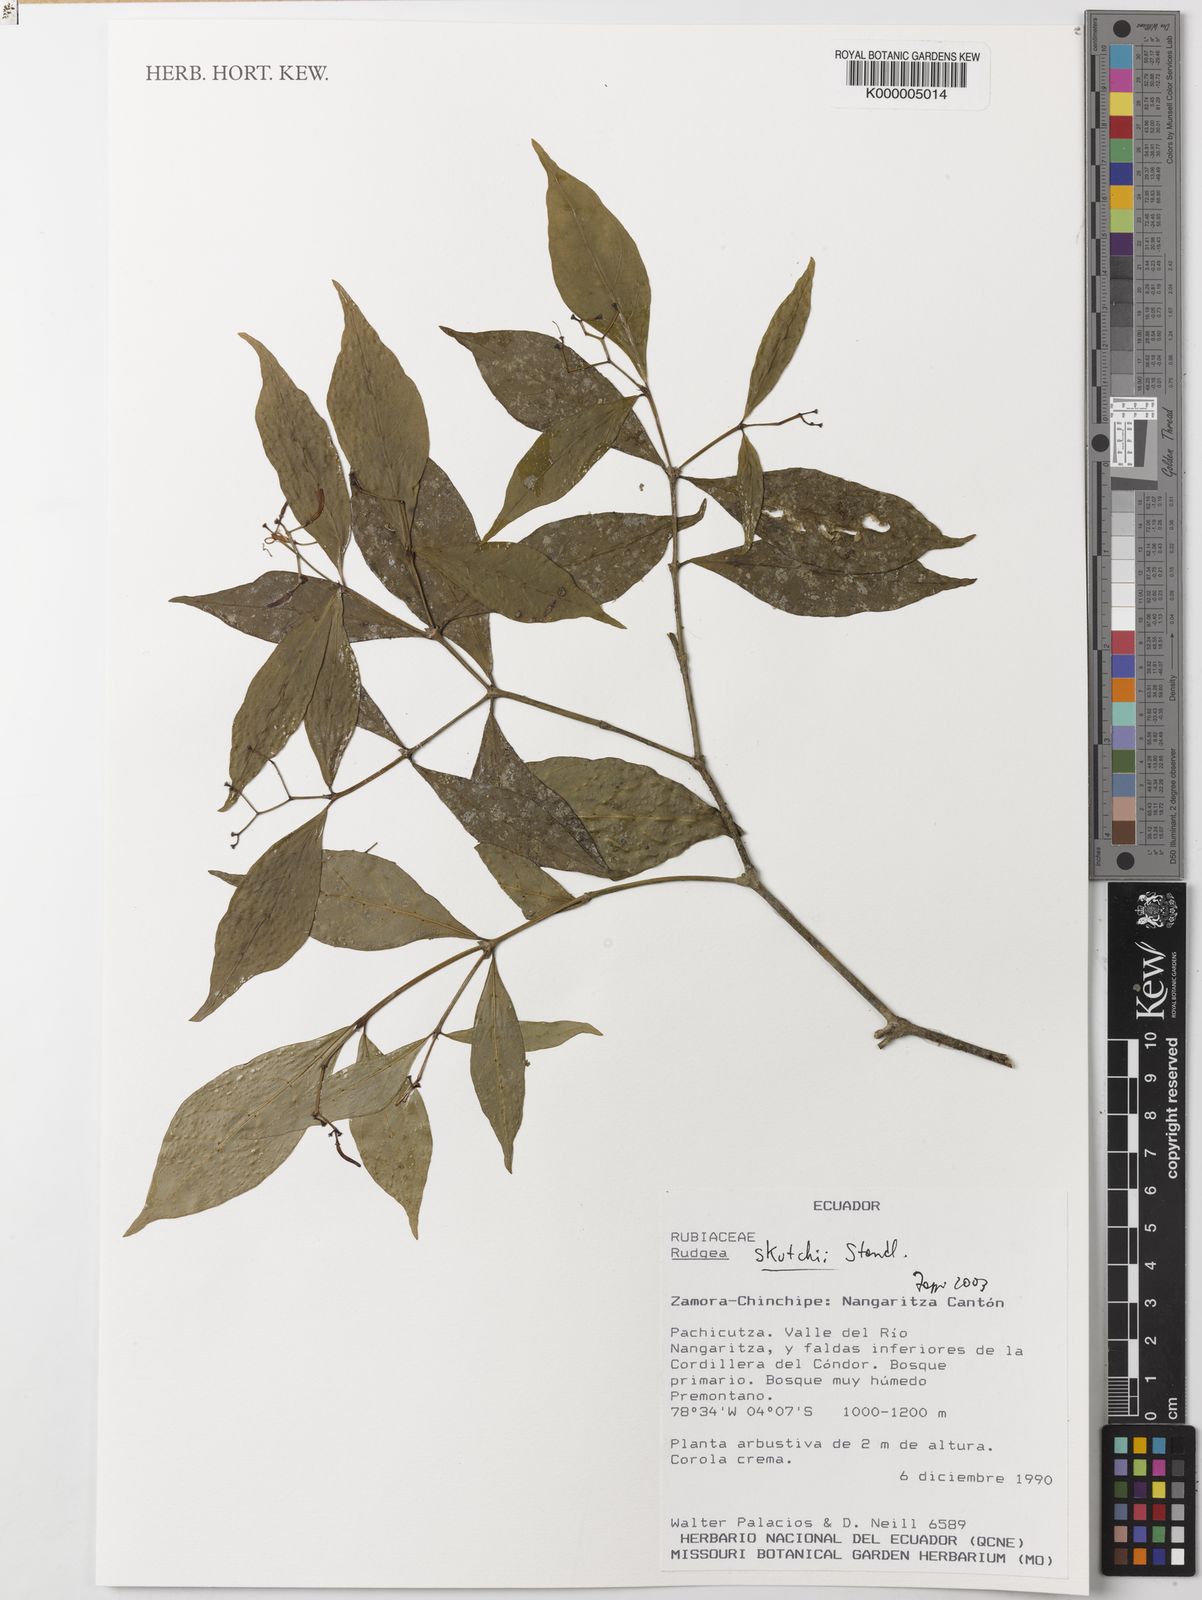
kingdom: Plantae
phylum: Tracheophyta
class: Magnoliopsida
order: Gentianales
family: Rubiaceae
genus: Rudgea
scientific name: Rudgea skutchii
